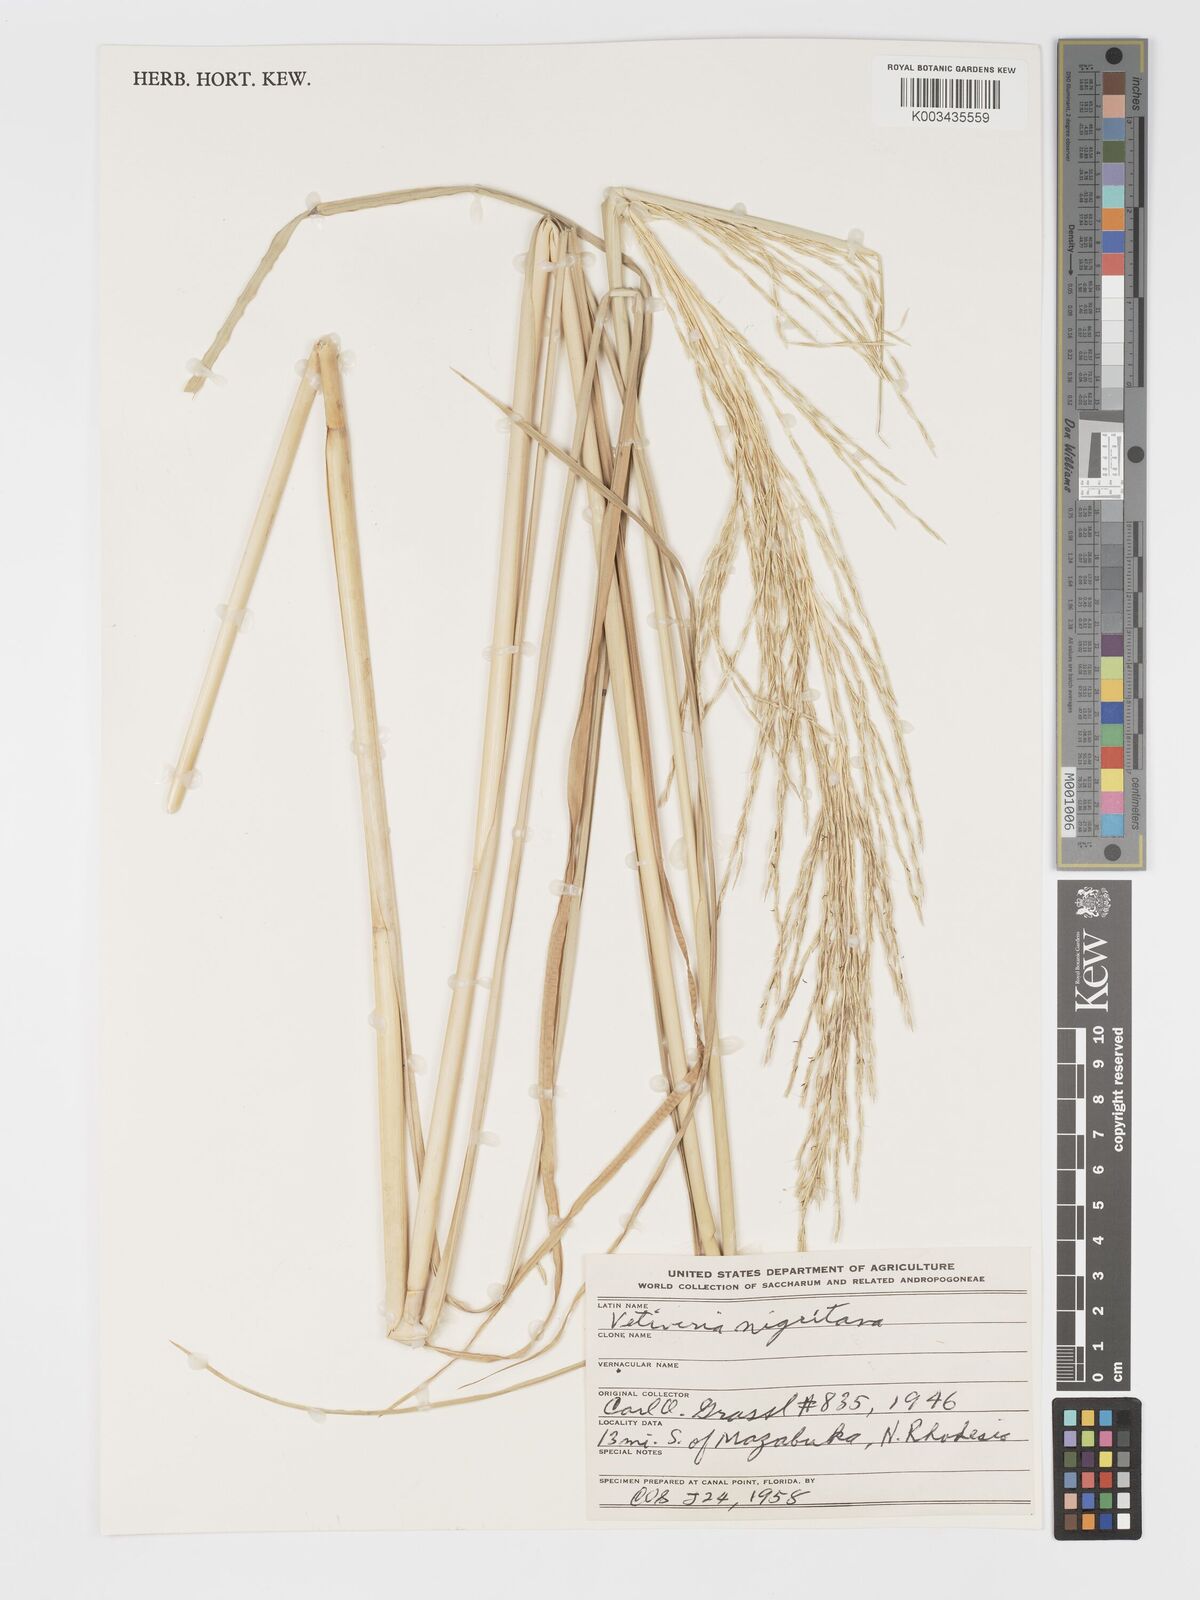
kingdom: Plantae
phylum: Tracheophyta
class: Liliopsida
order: Poales
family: Poaceae
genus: Chrysopogon
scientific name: Chrysopogon nigritanus
